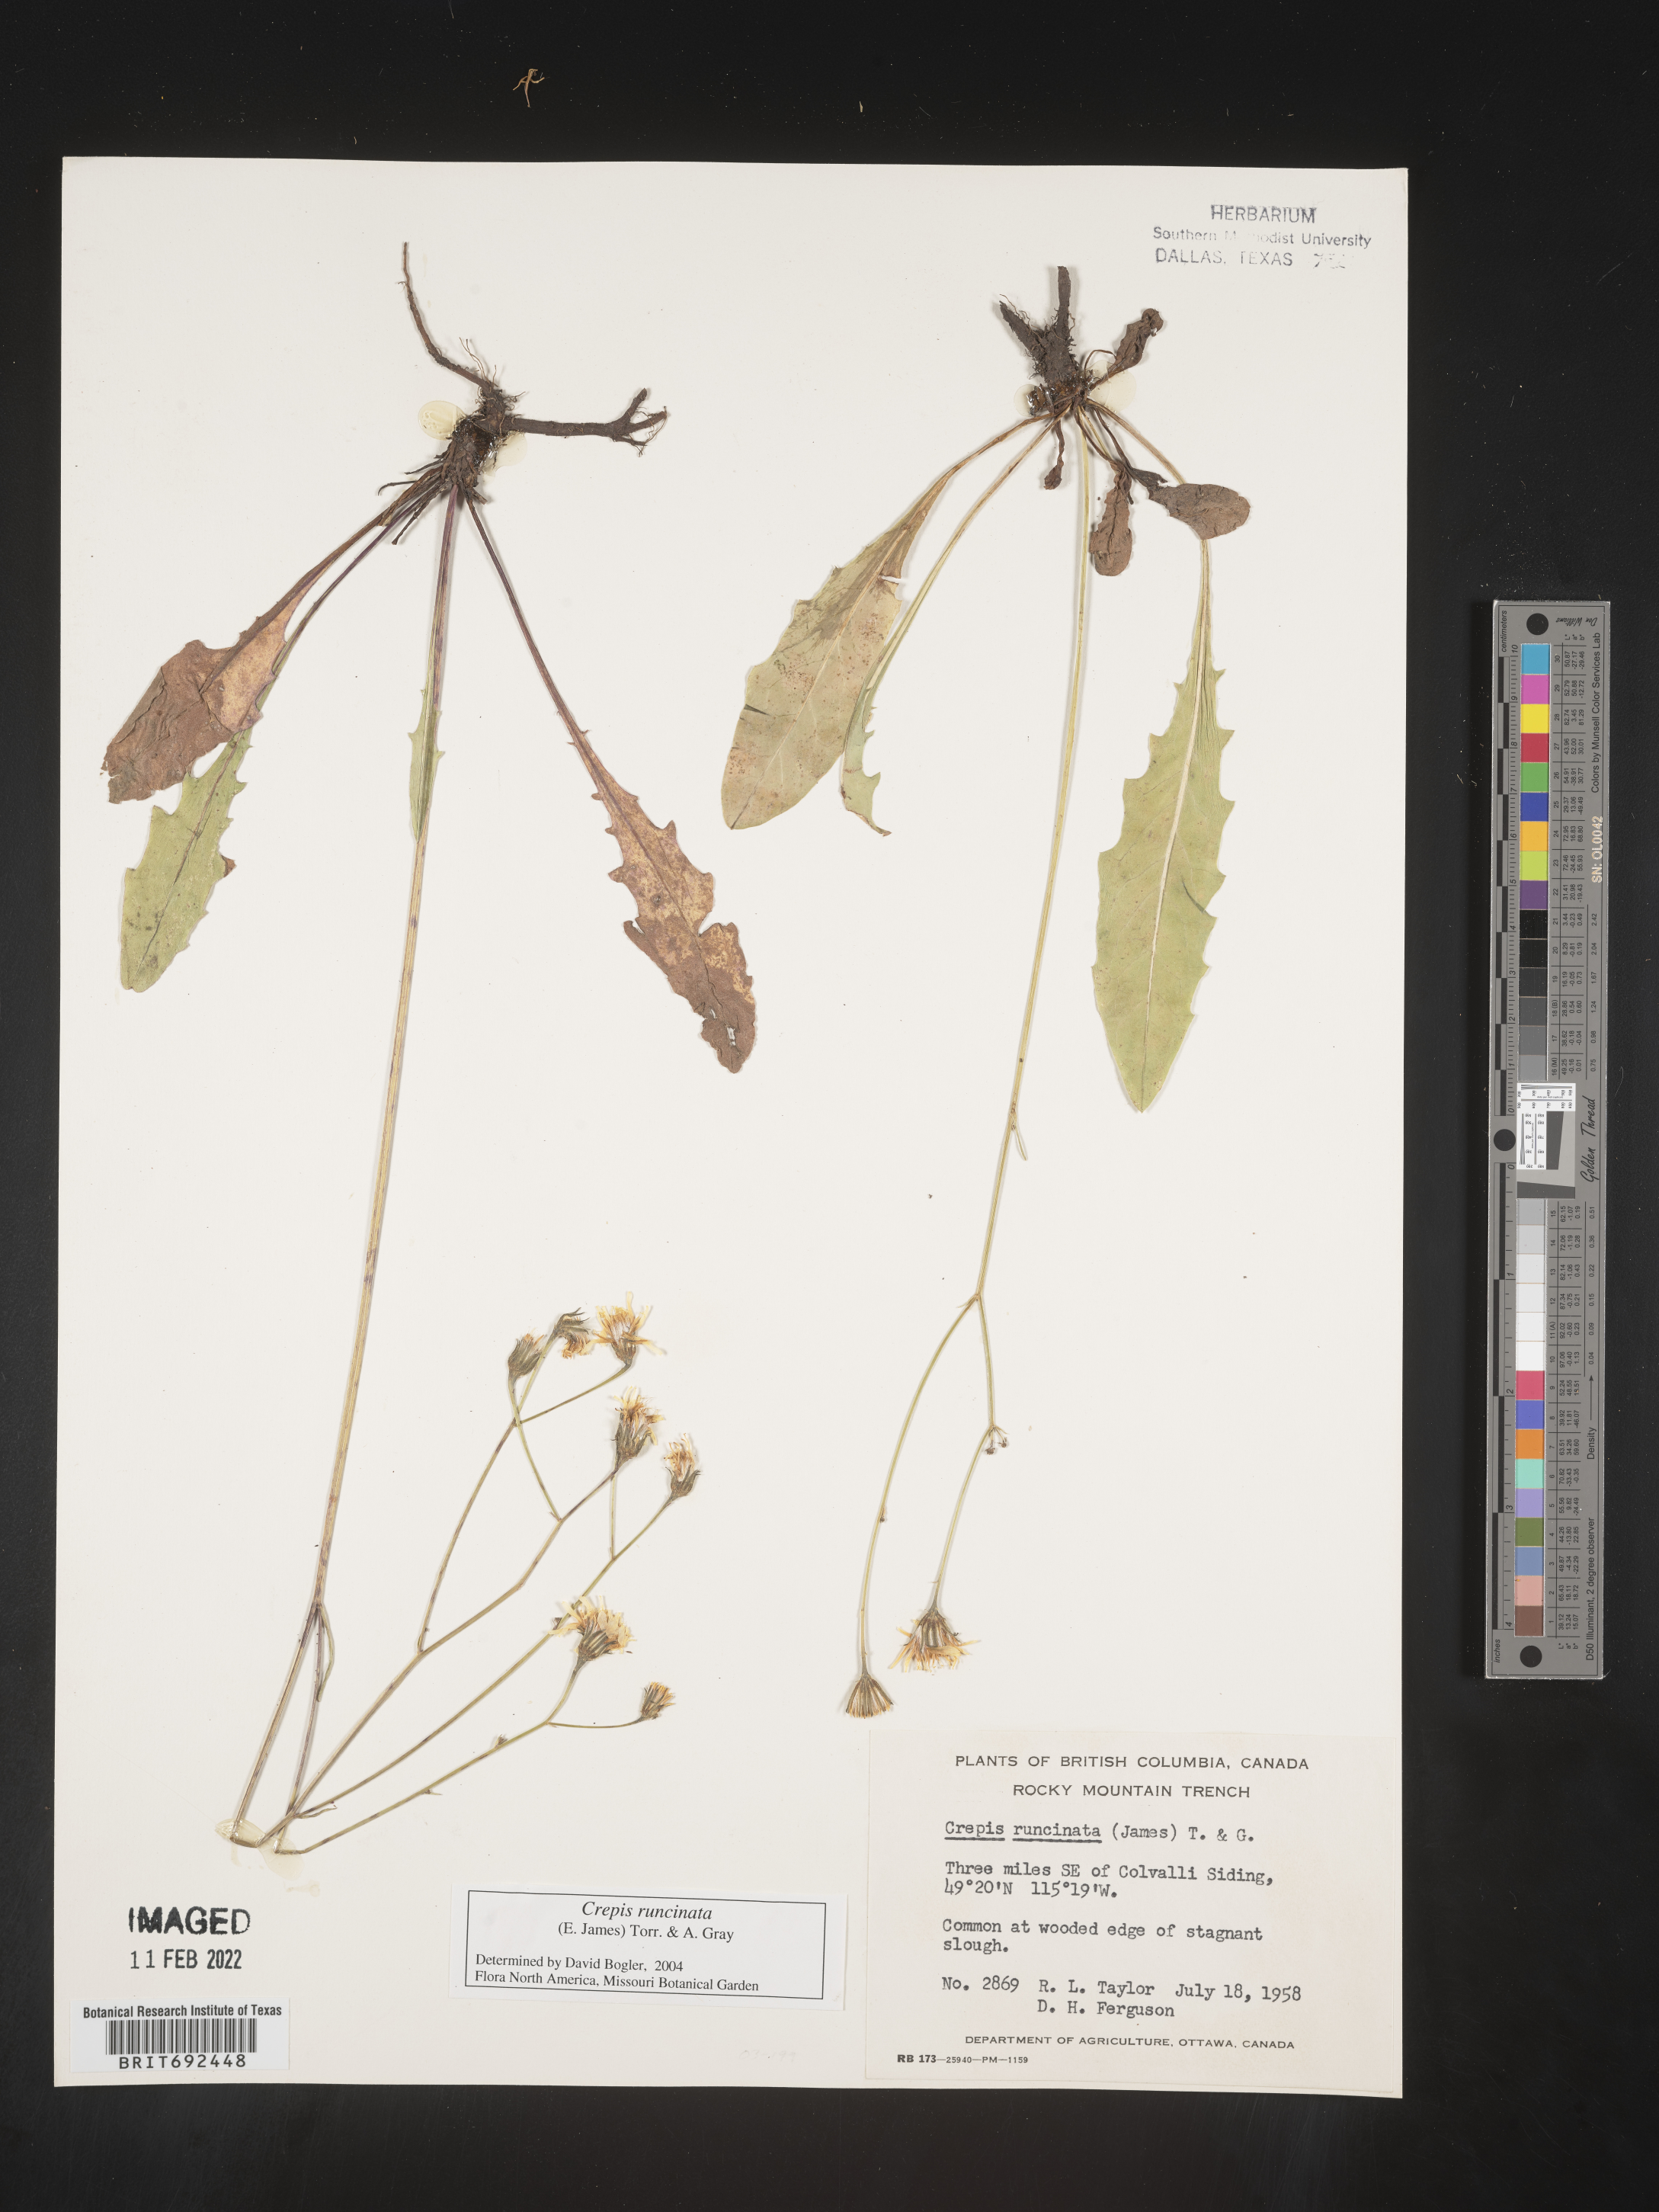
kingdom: Plantae
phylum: Tracheophyta
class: Magnoliopsida
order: Asterales
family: Asteraceae
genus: Crepis
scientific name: Crepis
